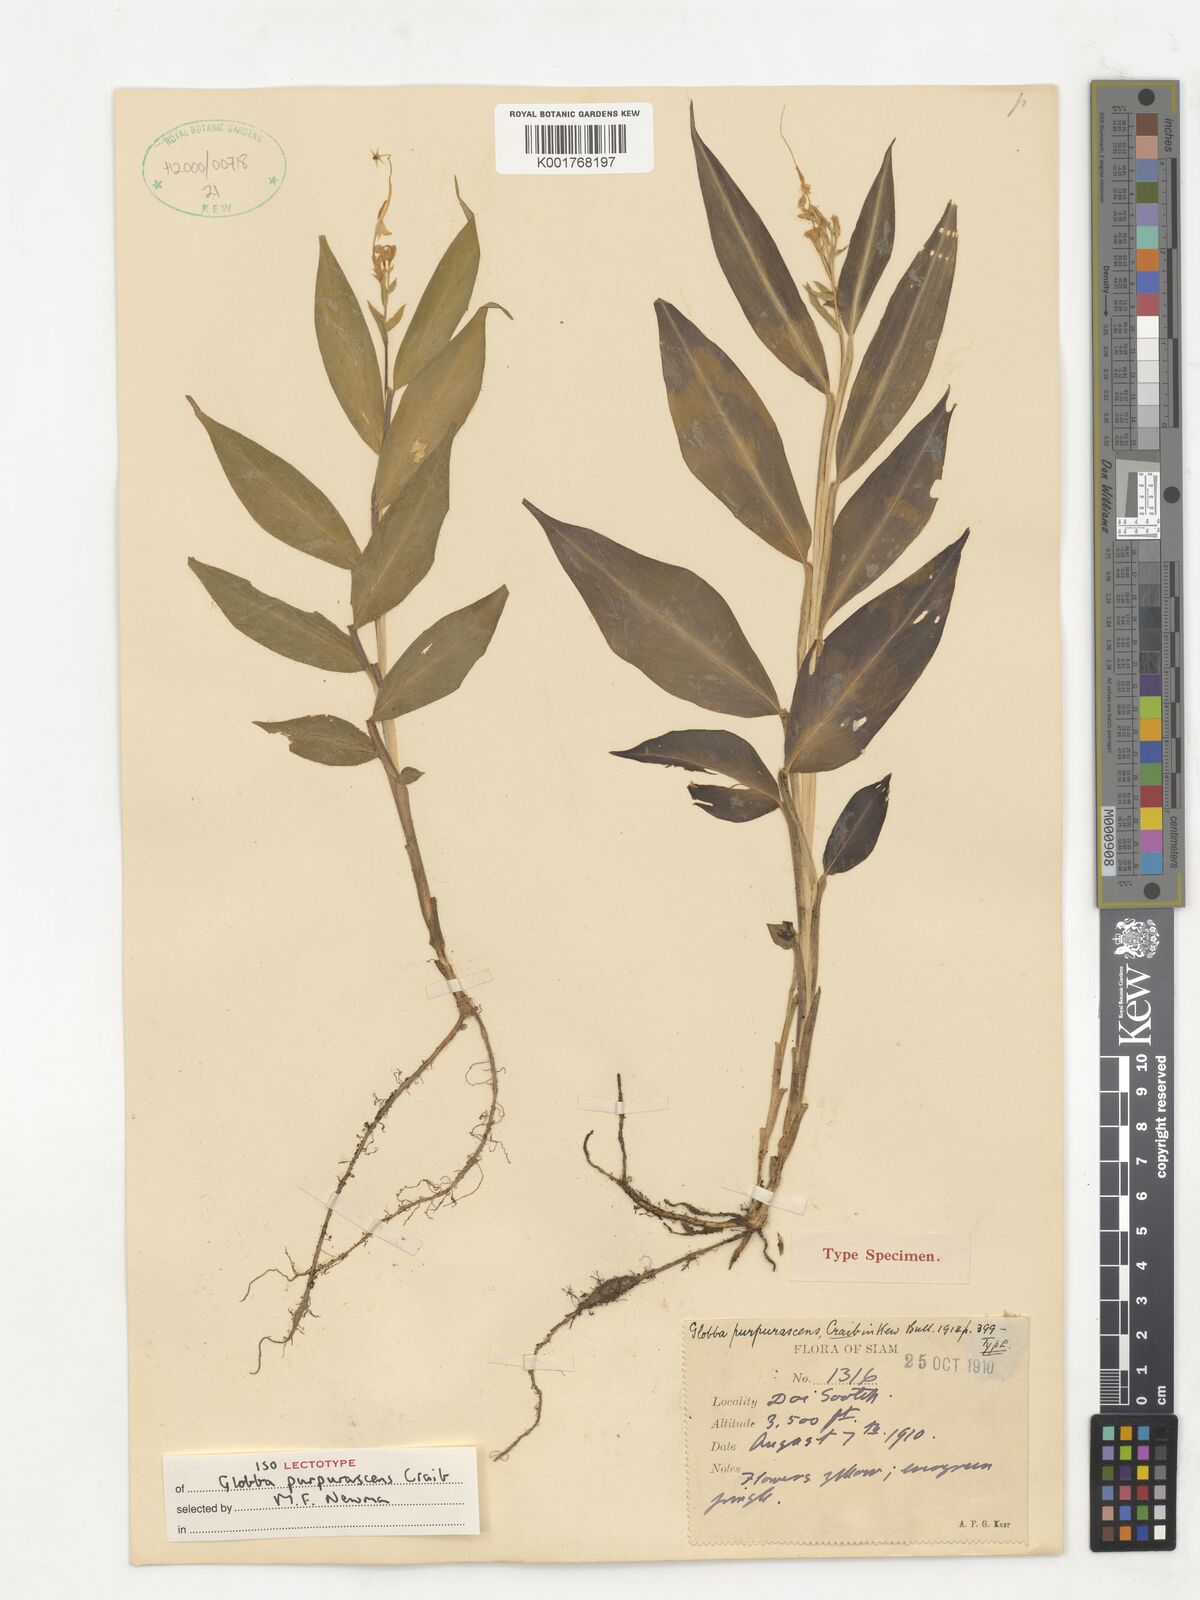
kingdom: Plantae
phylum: Tracheophyta
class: Liliopsida
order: Zingiberales
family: Zingiberaceae
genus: Globba
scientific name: Globba purpurascens
